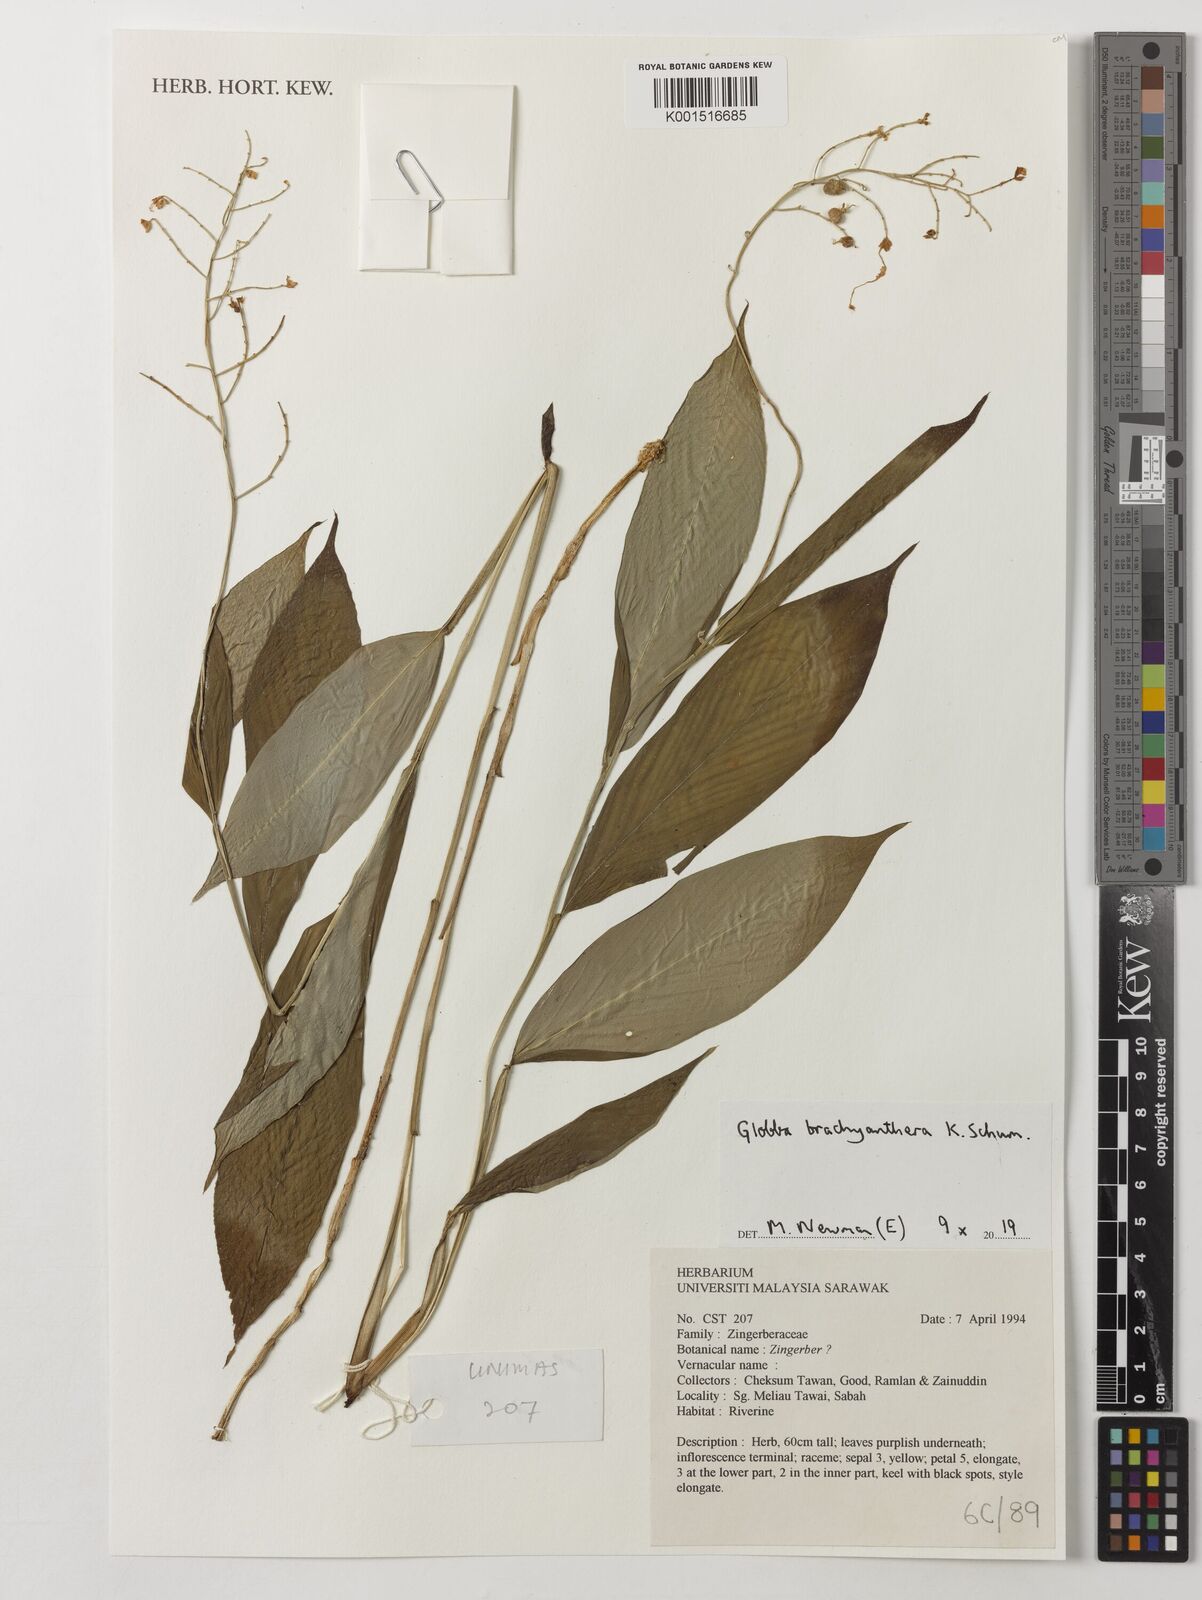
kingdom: Plantae
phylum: Tracheophyta
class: Liliopsida
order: Zingiberales
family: Zingiberaceae
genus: Globba
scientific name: Globba brachyanthera
